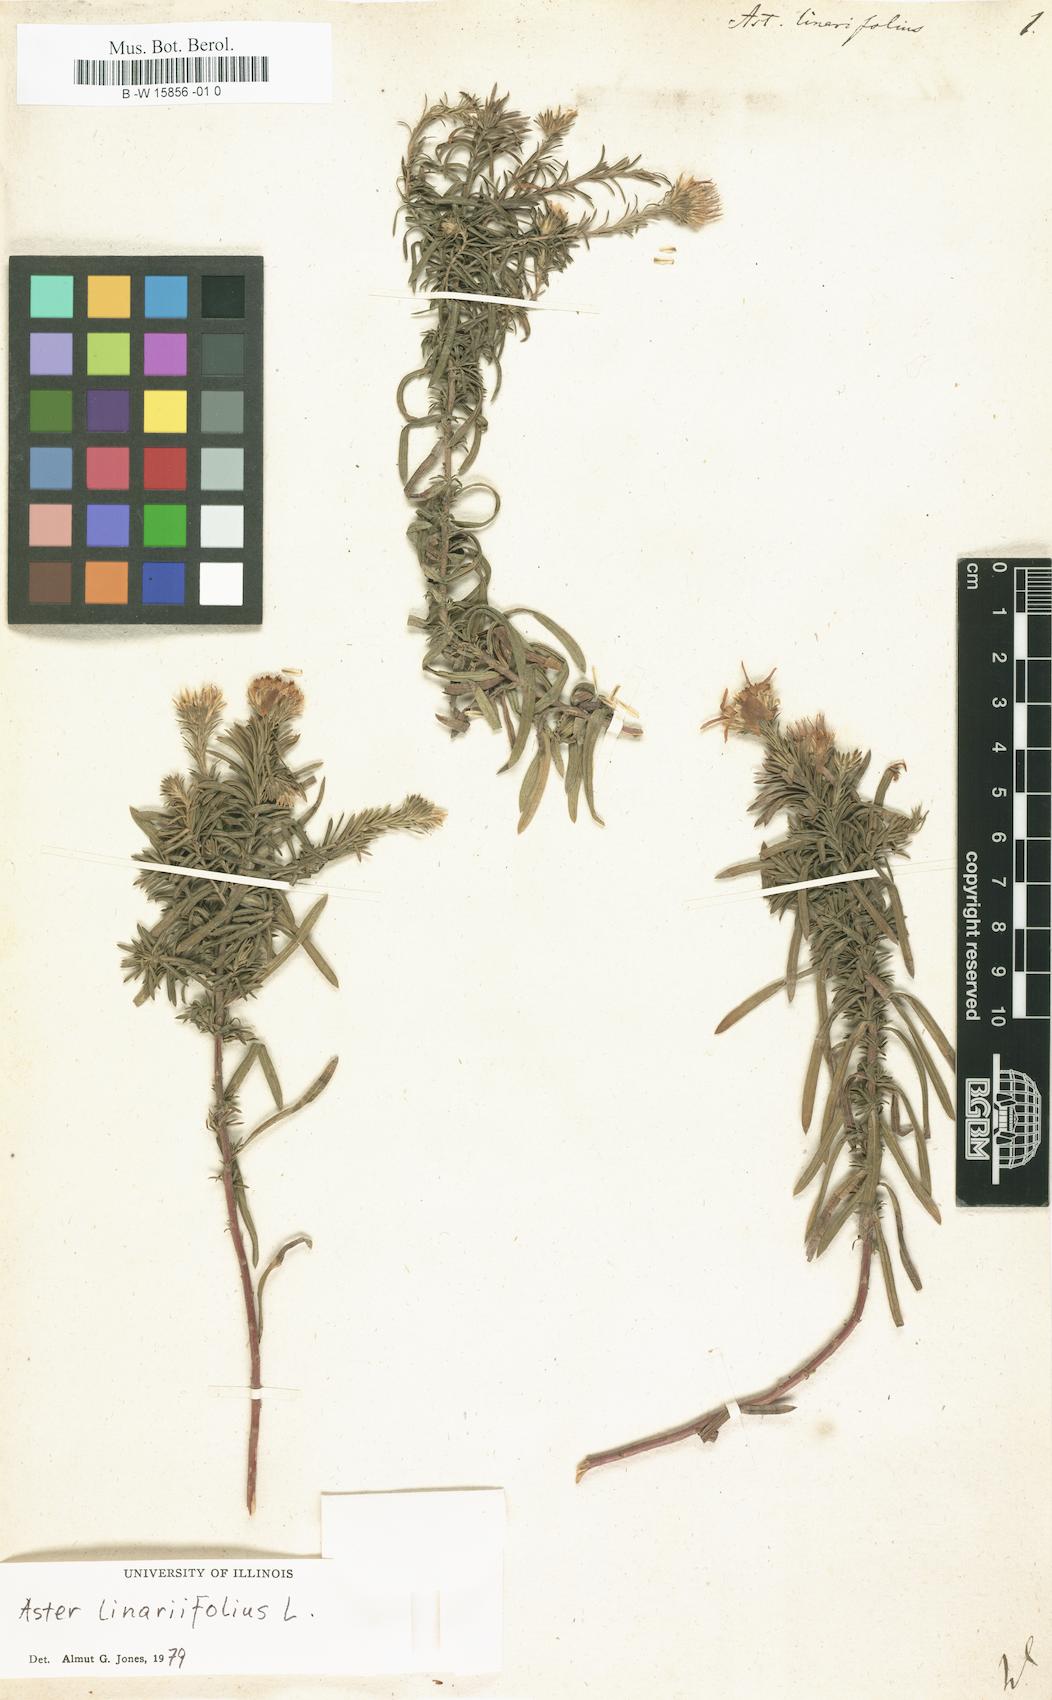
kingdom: Plantae
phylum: Tracheophyta
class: Magnoliopsida
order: Asterales
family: Asteraceae
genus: Aster
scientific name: Aster linariifolius
